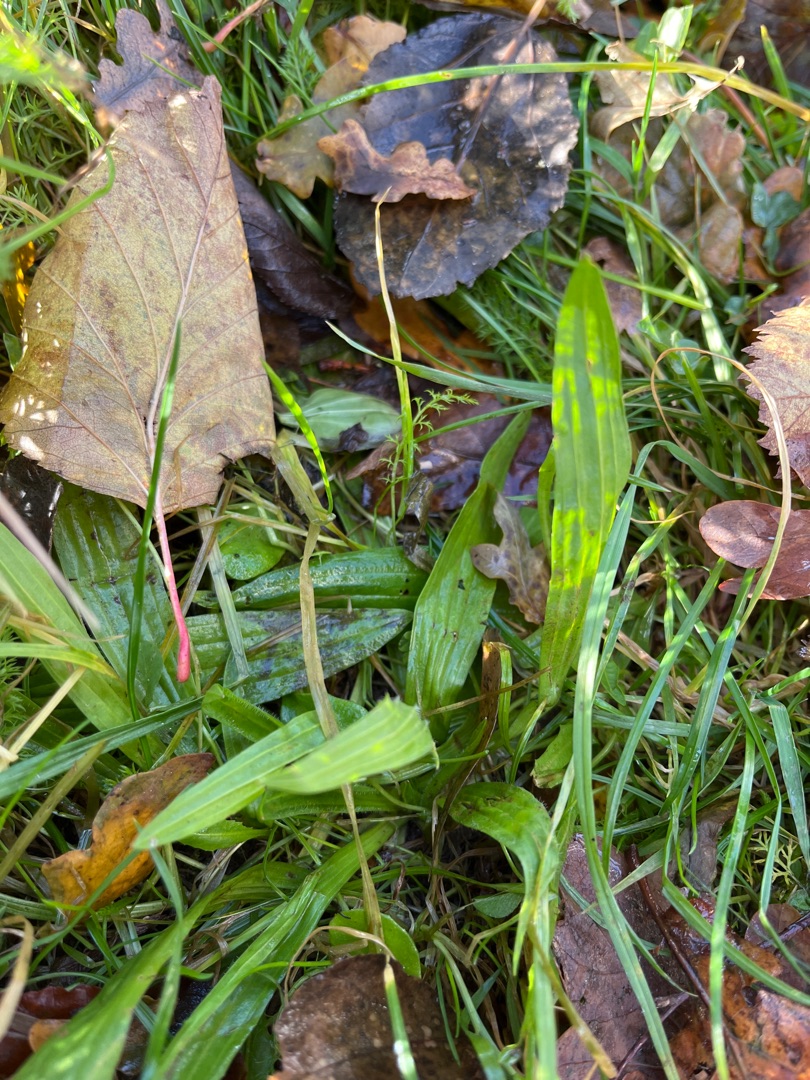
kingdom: Plantae
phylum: Tracheophyta
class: Magnoliopsida
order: Lamiales
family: Plantaginaceae
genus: Plantago
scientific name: Plantago lanceolata
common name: Lancet-vejbred
